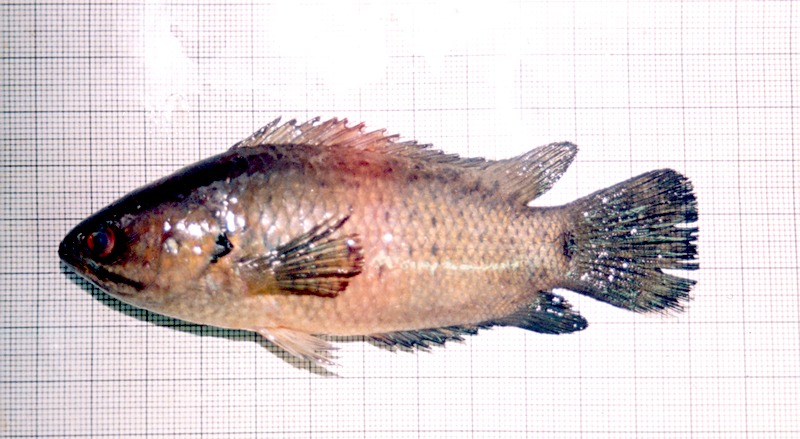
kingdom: Animalia
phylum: Chordata
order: Perciformes
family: Anabantidae
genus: Anabas
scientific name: Anabas testudineus
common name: Climbing perch
